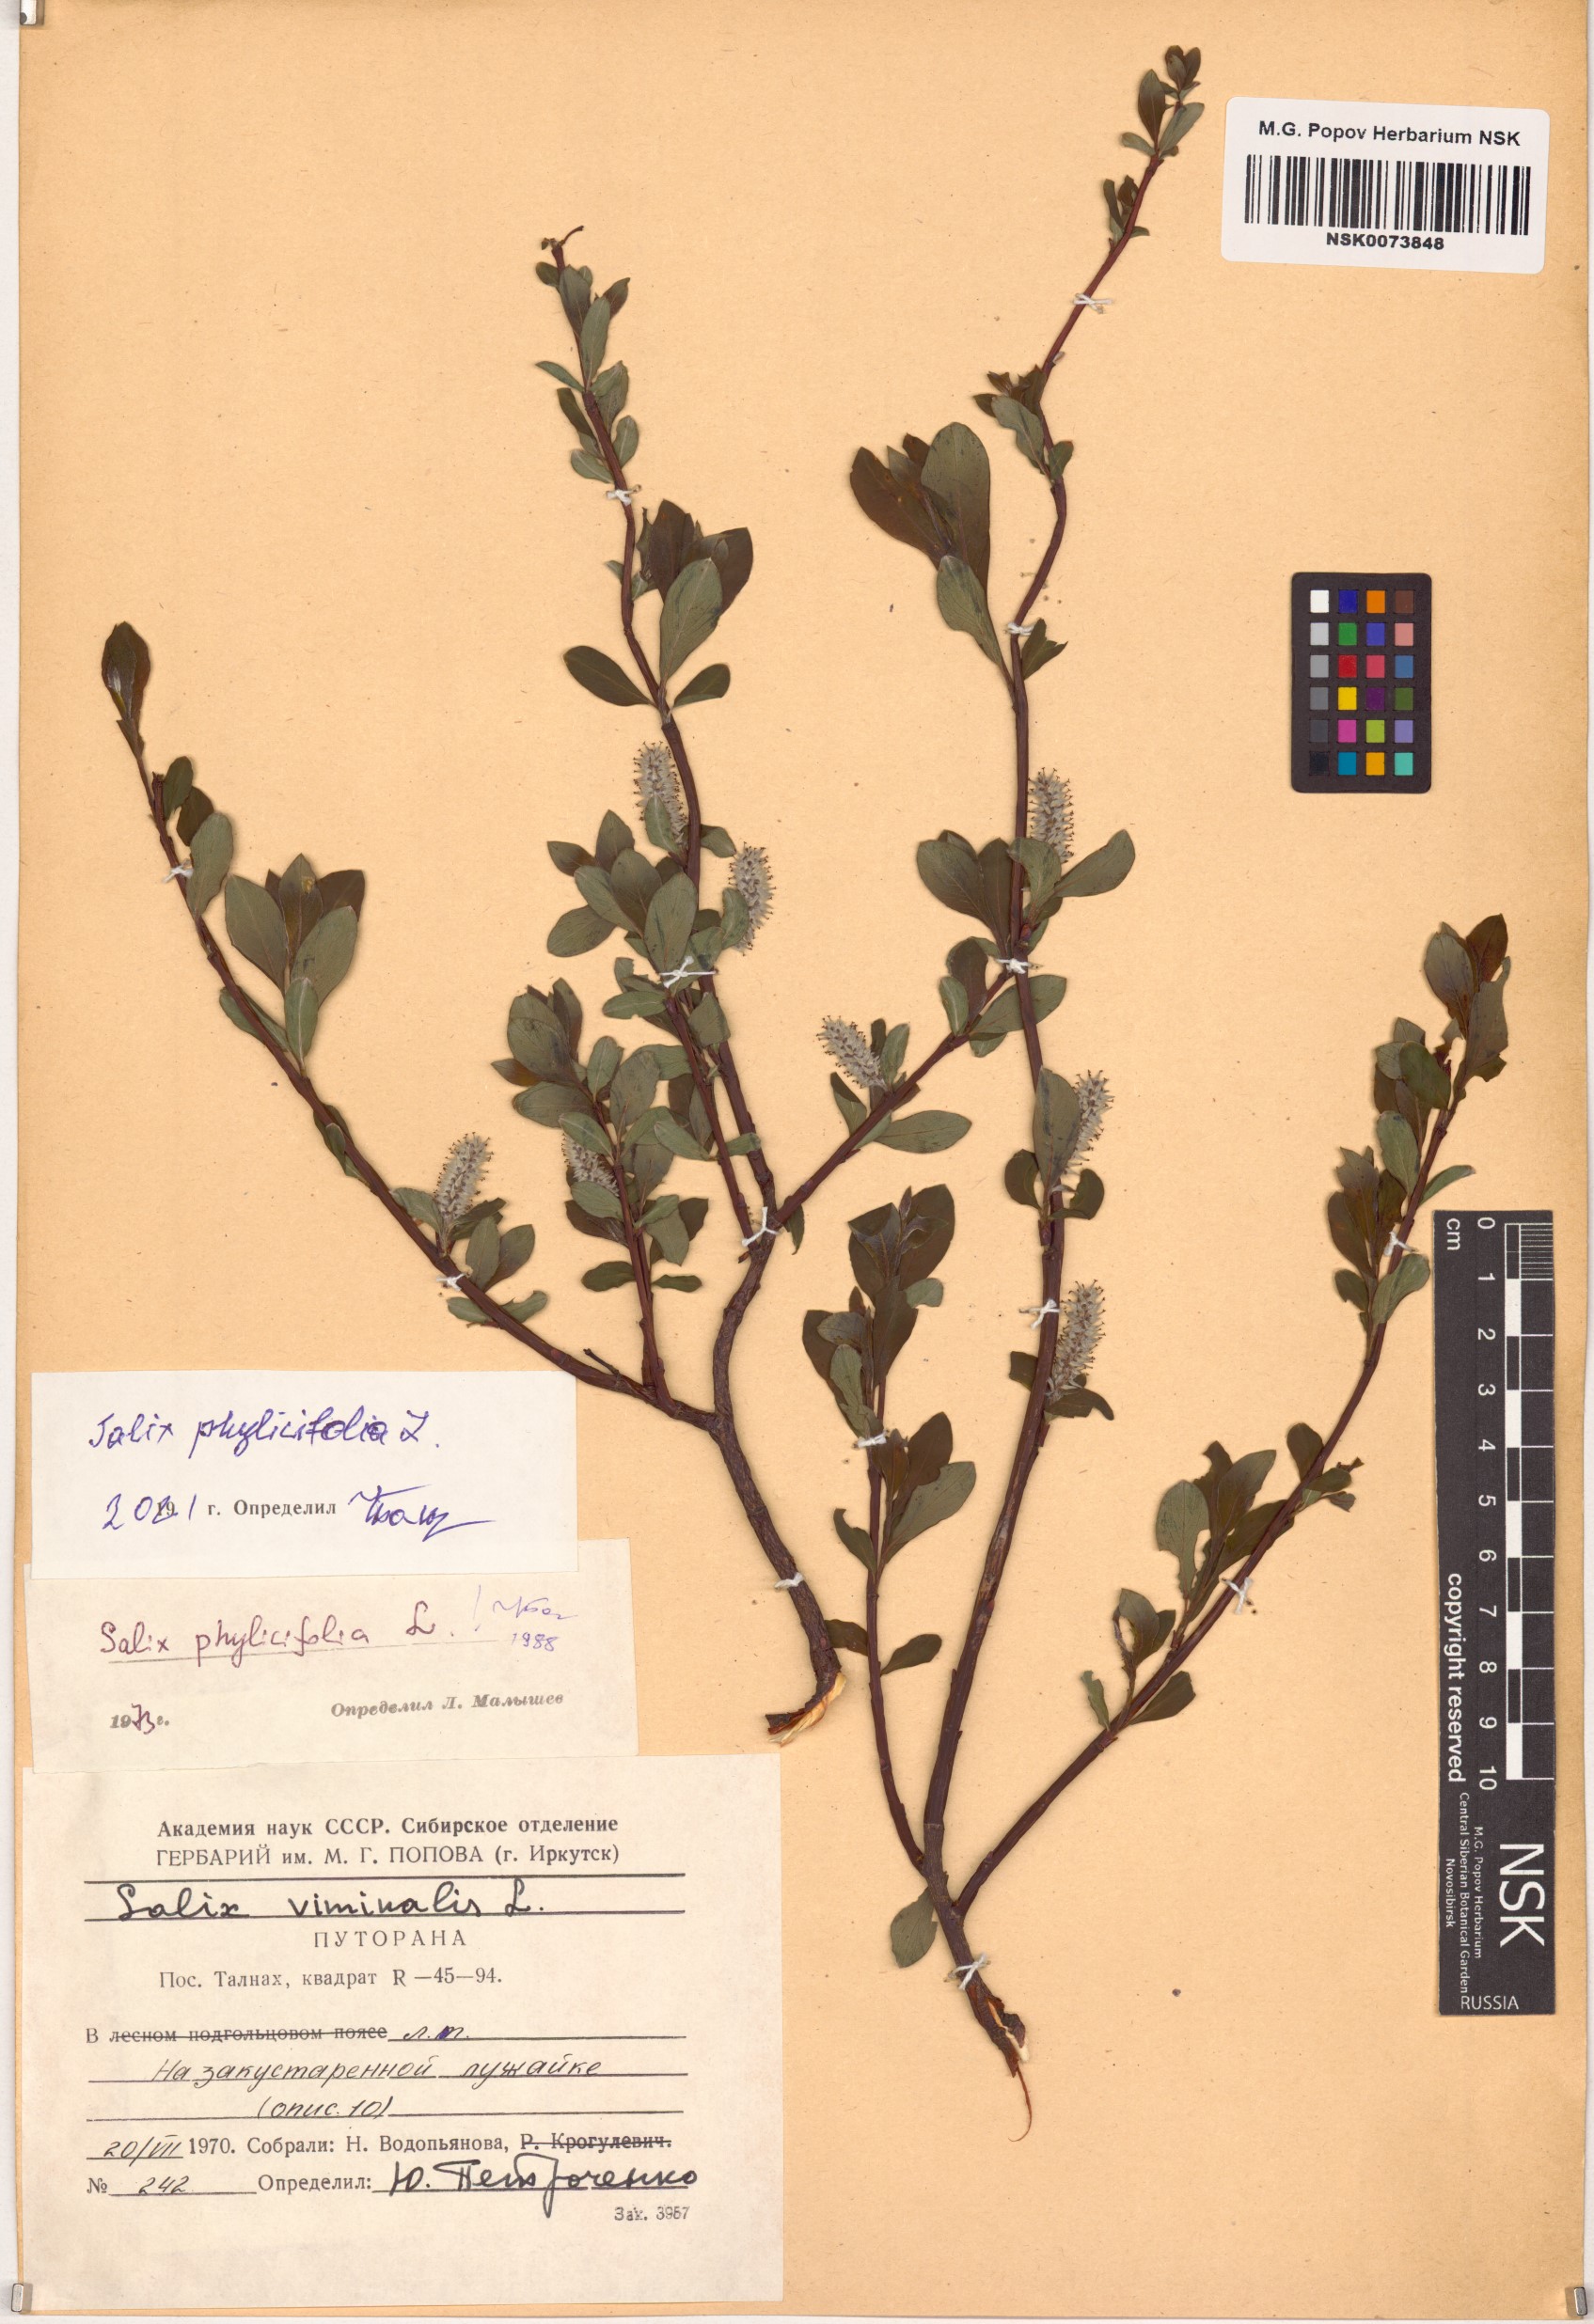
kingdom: Plantae
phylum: Tracheophyta
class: Magnoliopsida
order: Malpighiales
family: Salicaceae
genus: Salix
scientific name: Salix phylicifolia
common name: Tea-leaved willow
